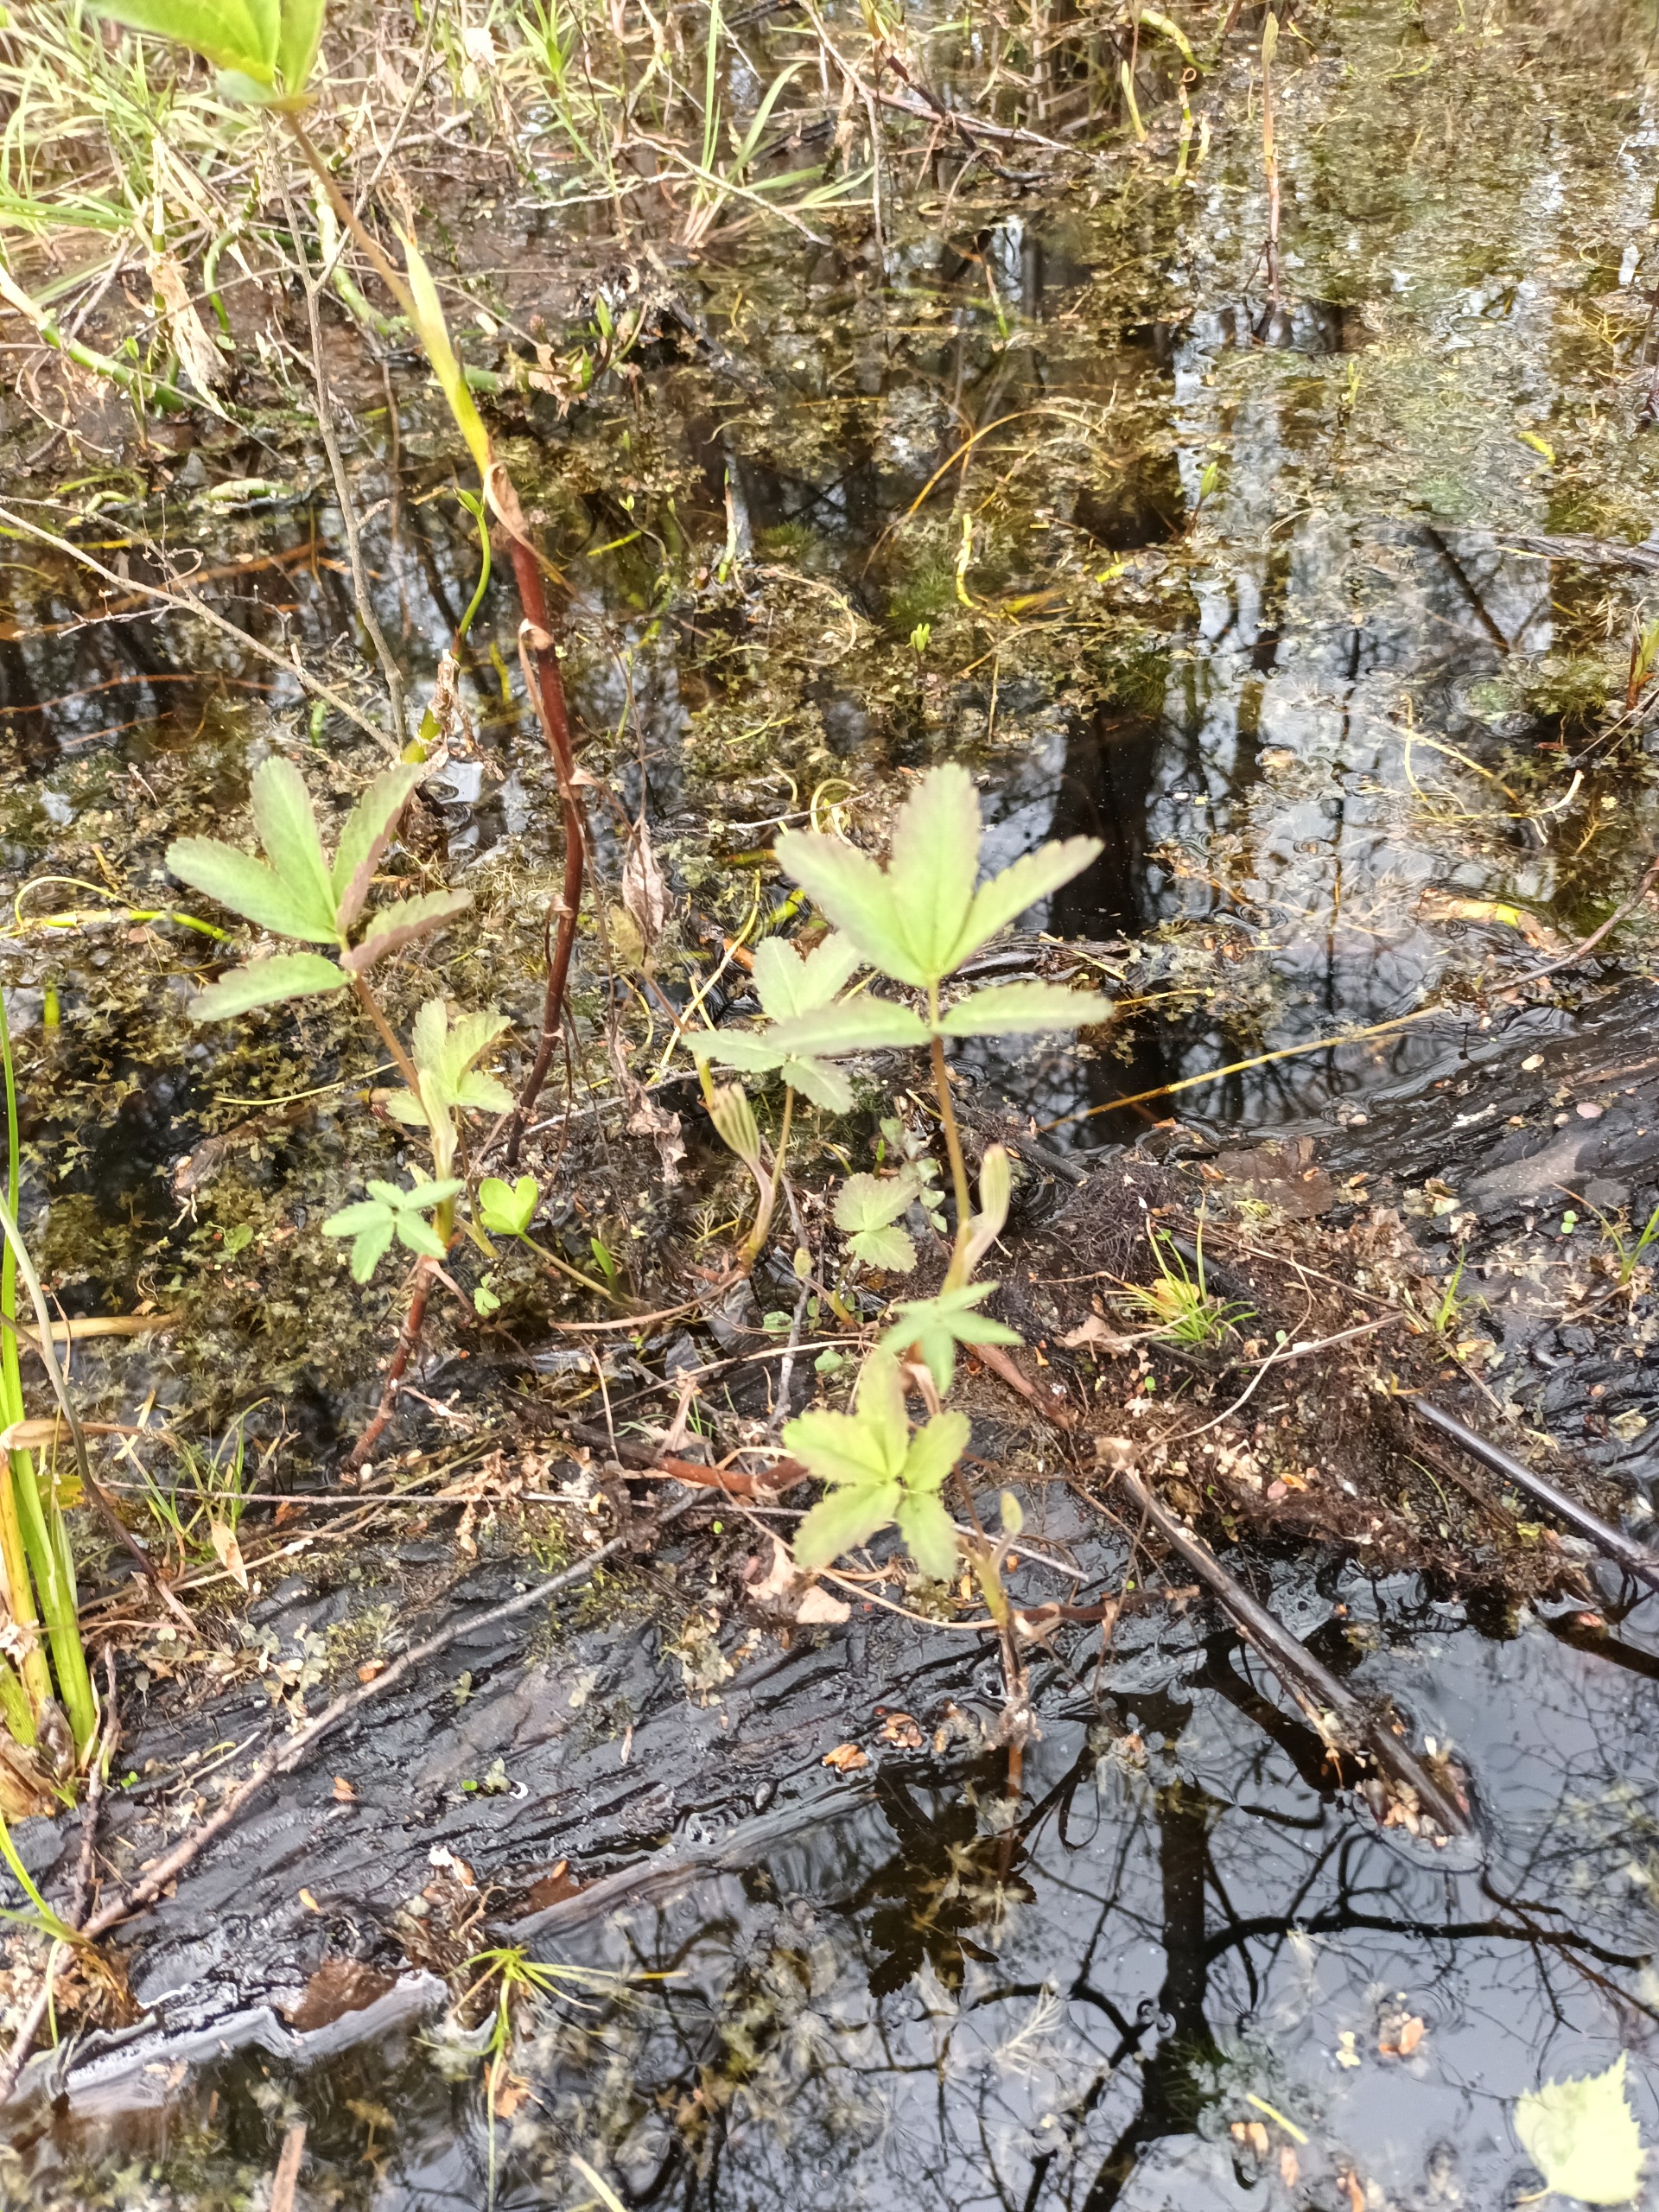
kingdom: Plantae
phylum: Tracheophyta
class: Magnoliopsida
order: Rosales
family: Rosaceae
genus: Comarum
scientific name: Comarum palustre
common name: Kragefod
